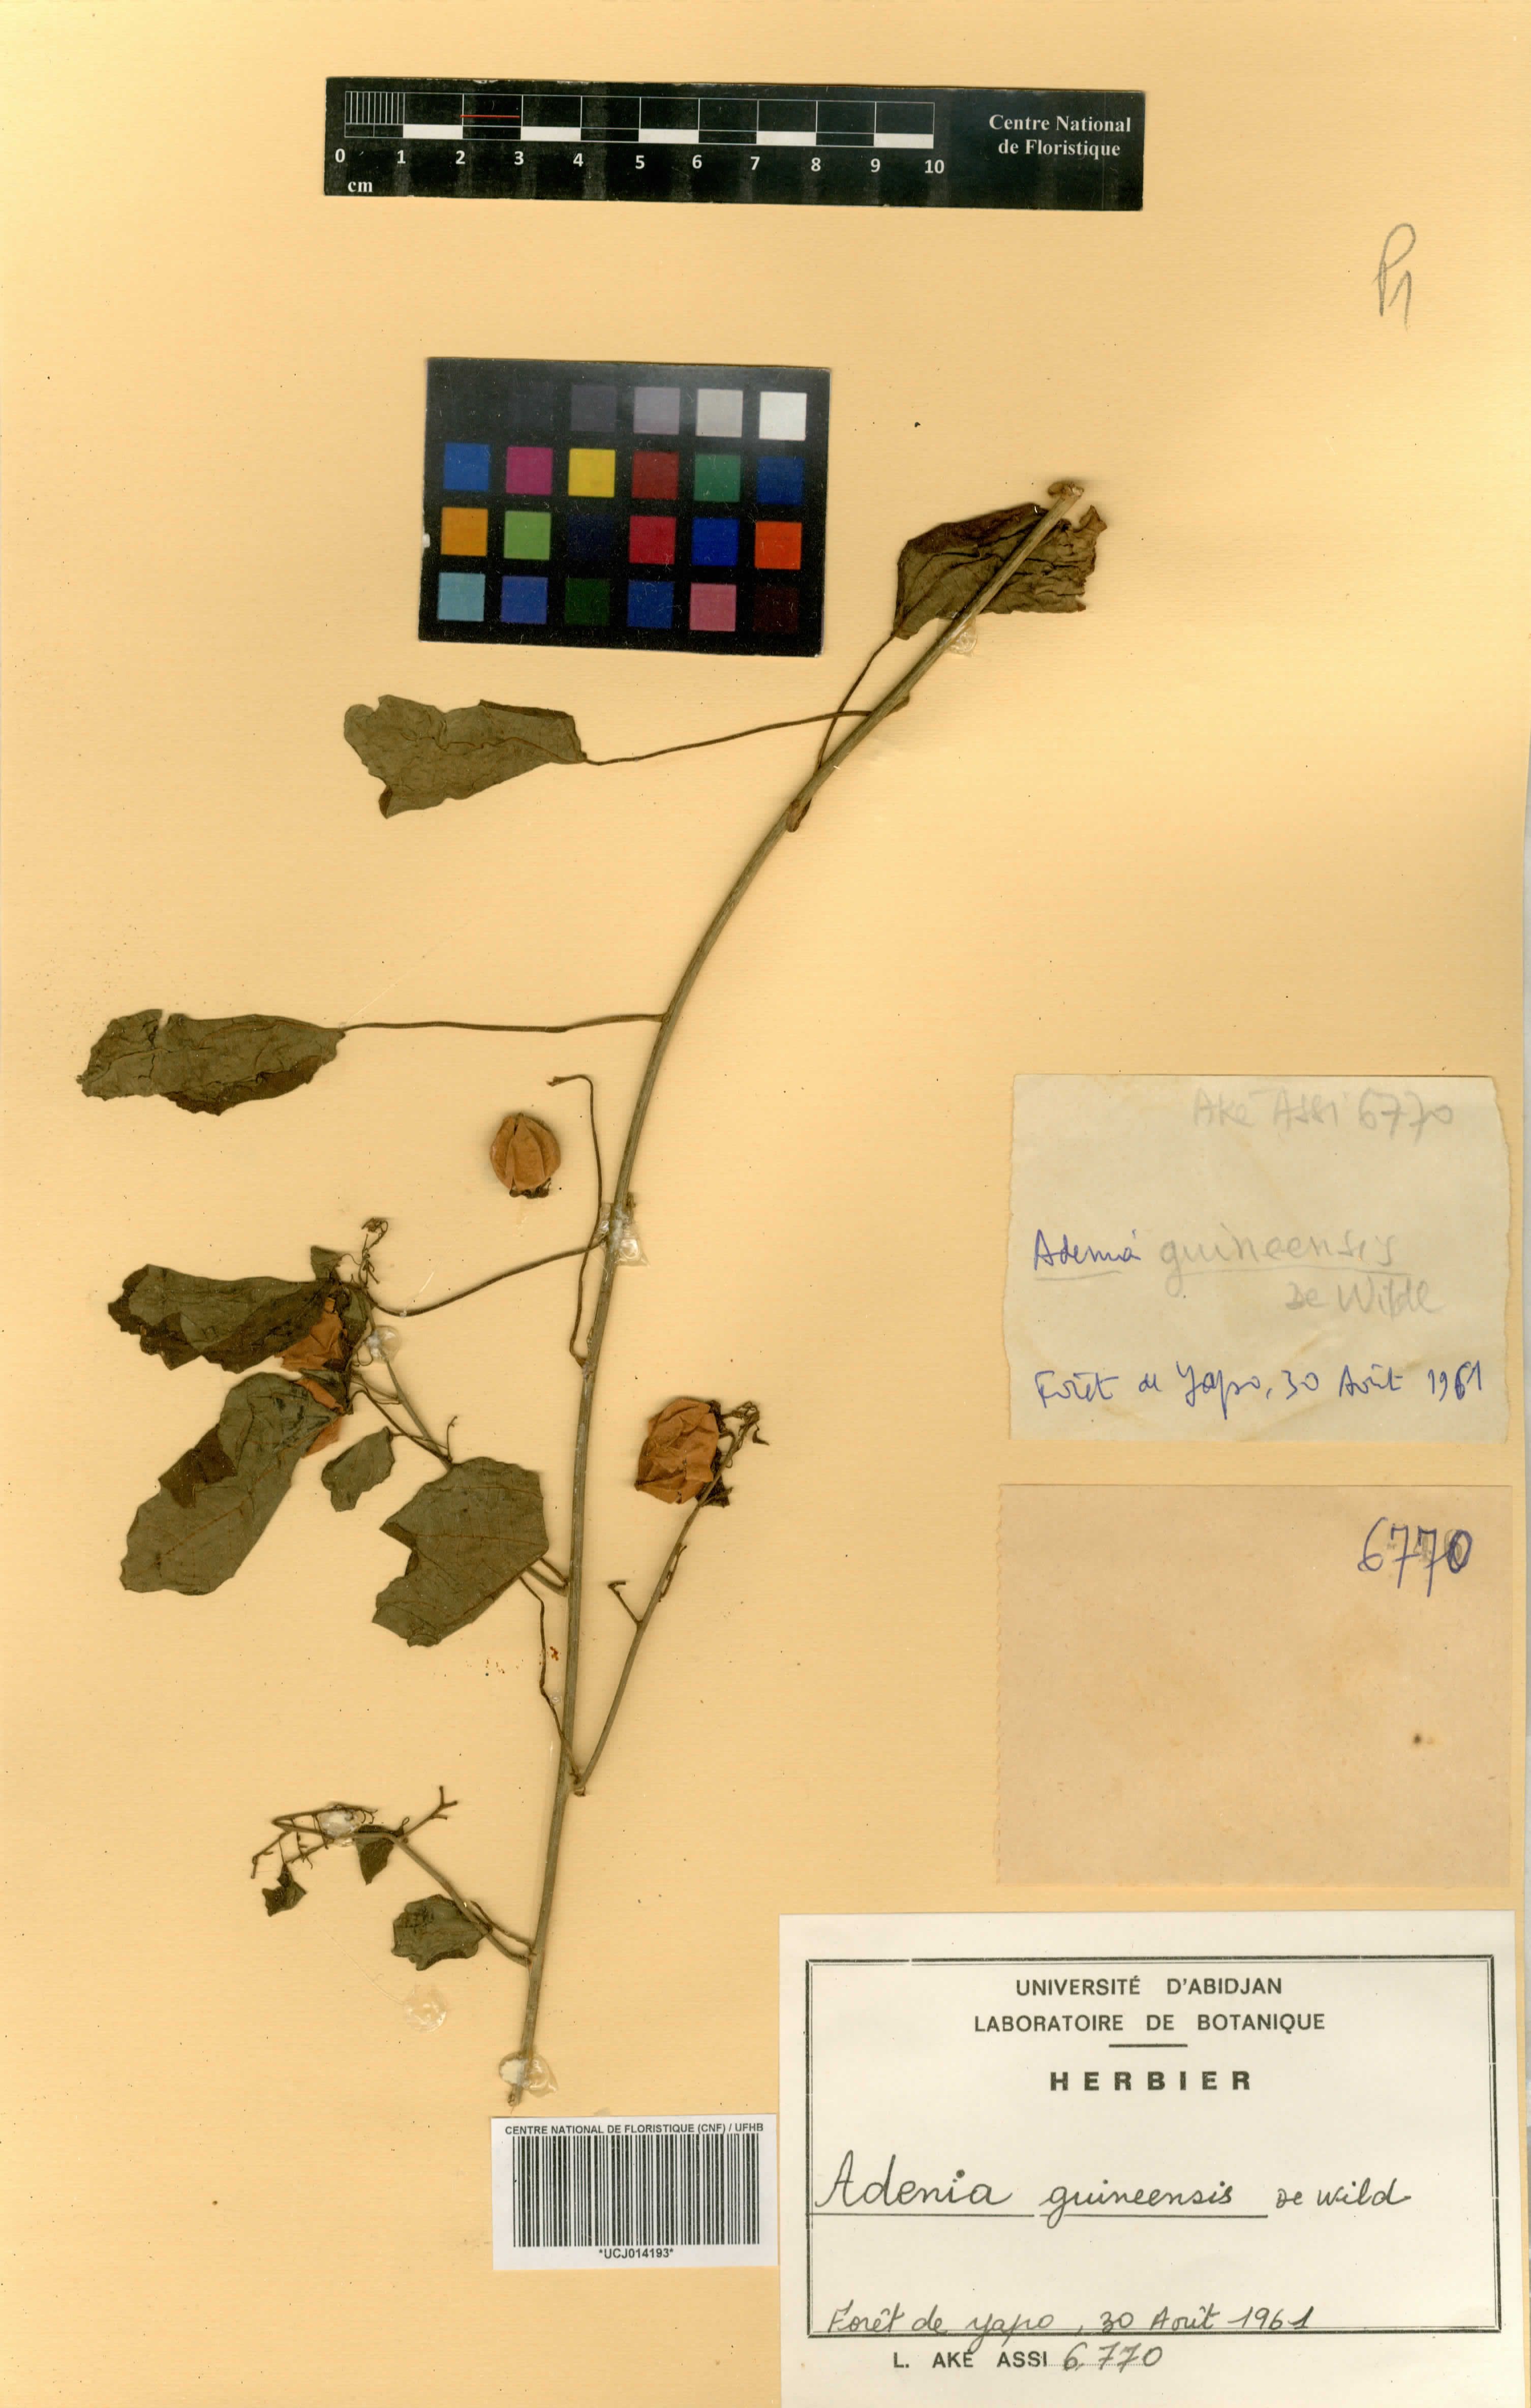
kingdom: Plantae
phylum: Tracheophyta
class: Magnoliopsida
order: Malpighiales
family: Passifloraceae
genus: Adenia
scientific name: Adenia cissampeloides
